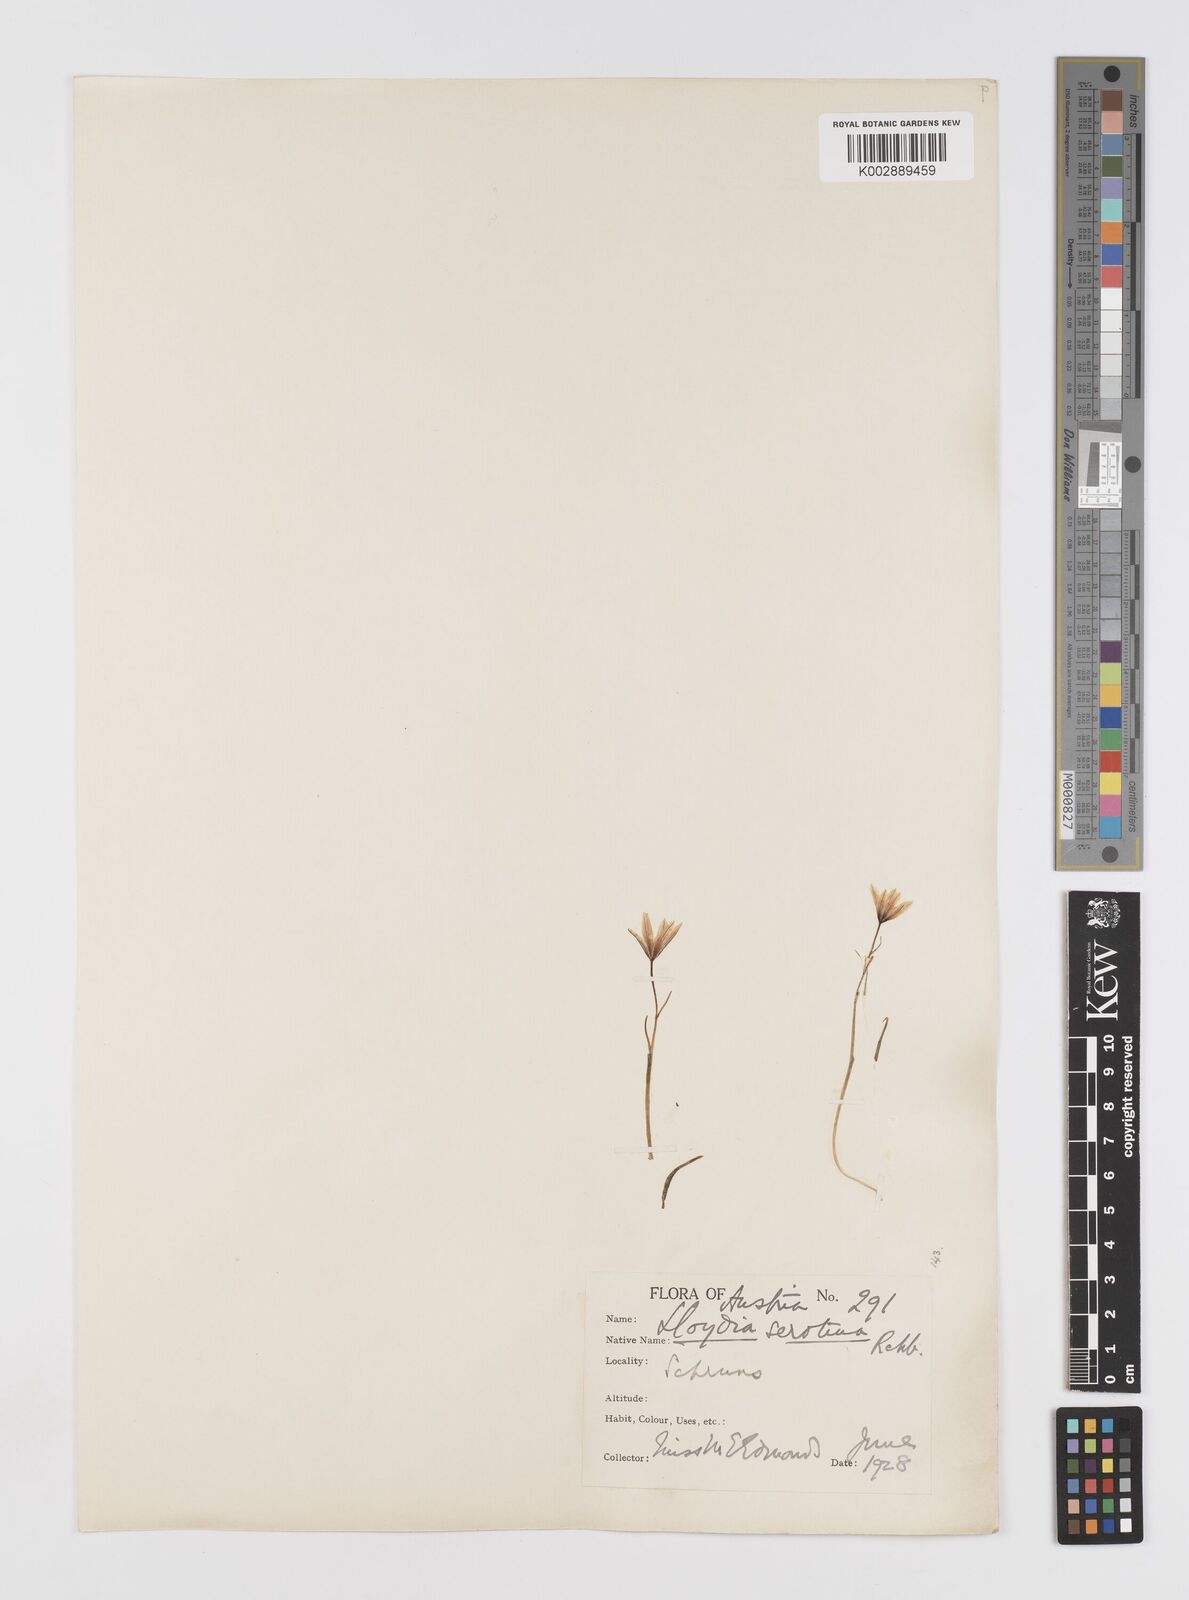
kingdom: Plantae
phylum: Tracheophyta
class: Liliopsida
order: Liliales
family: Liliaceae
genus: Gagea
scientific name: Gagea
